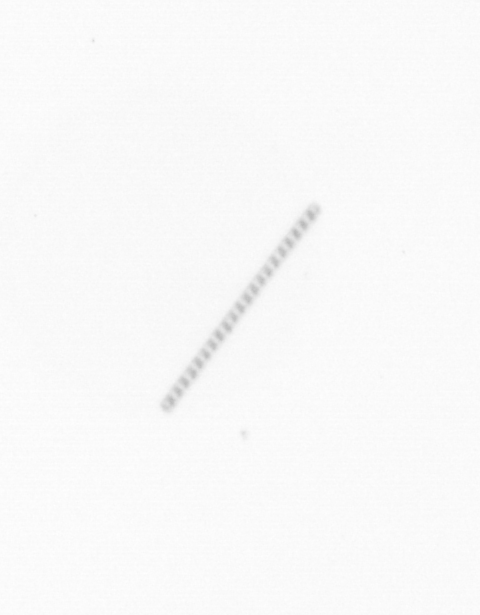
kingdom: Chromista
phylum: Ochrophyta
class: Bacillariophyceae
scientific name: Bacillariophyceae
